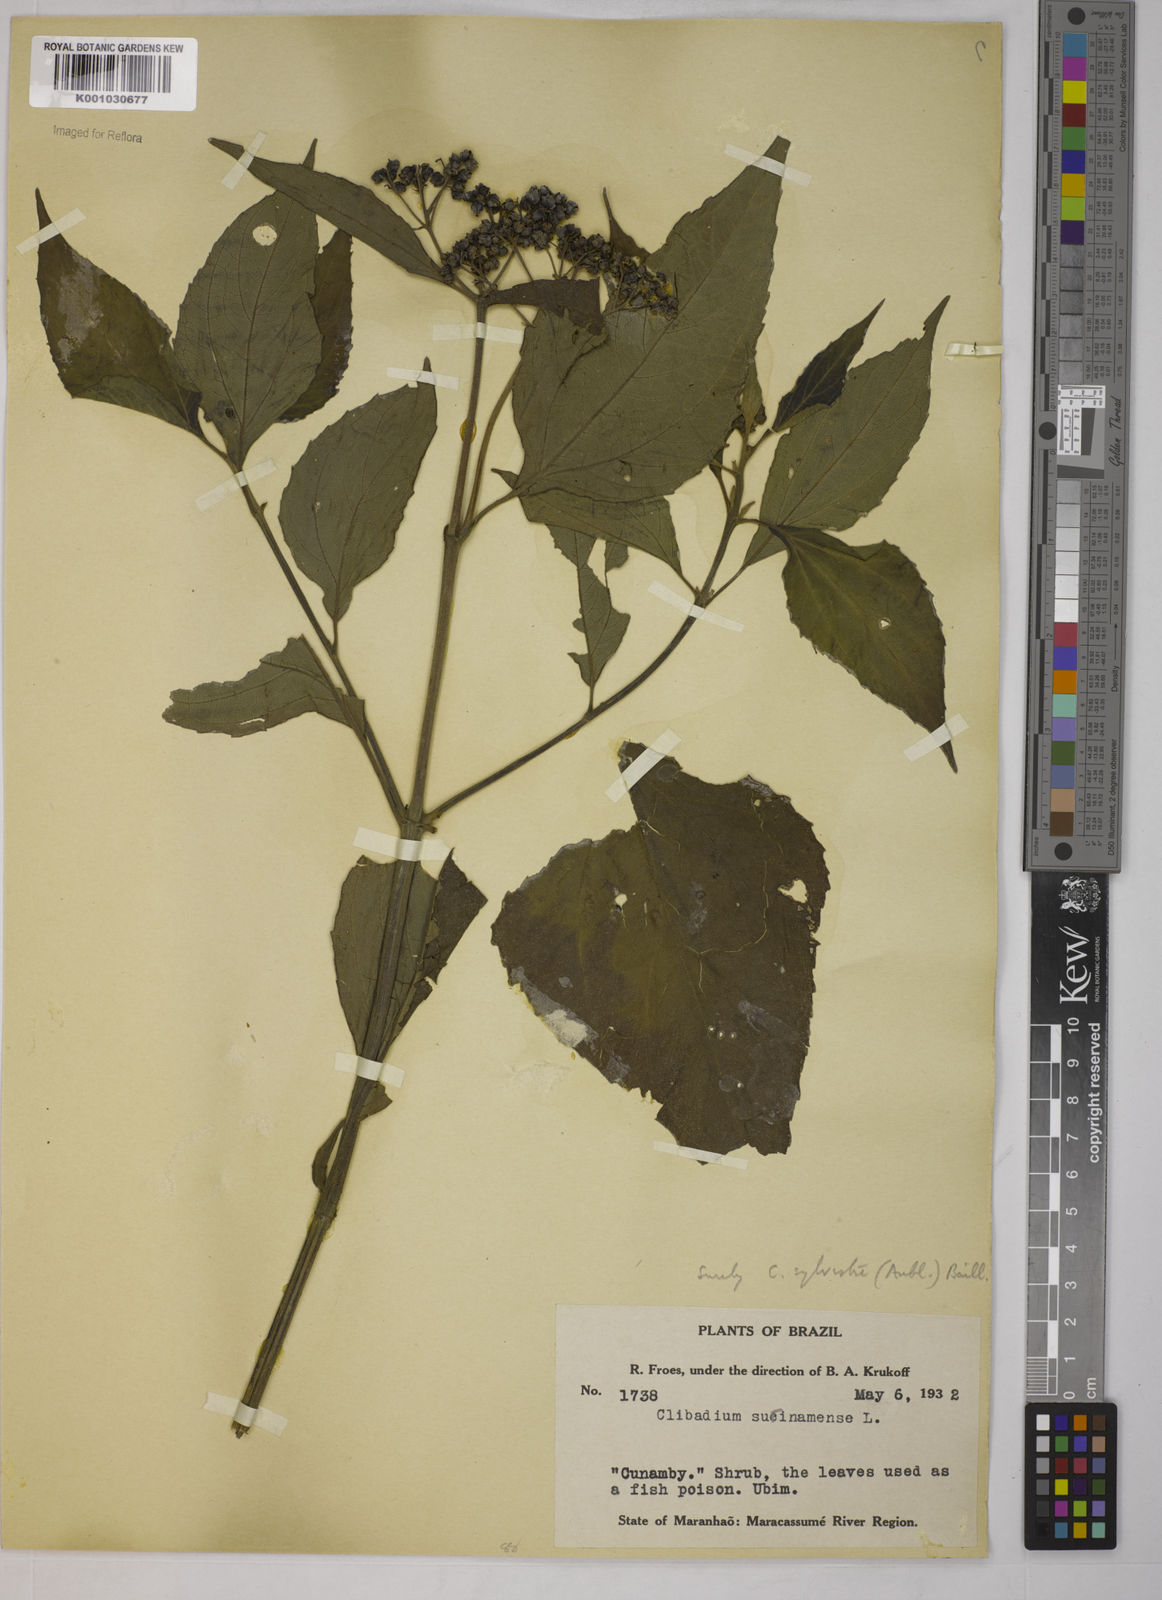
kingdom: Plantae
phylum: Tracheophyta
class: Magnoliopsida
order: Asterales
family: Asteraceae
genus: Clibadium
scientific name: Clibadium sylvestre
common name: Barbasco
